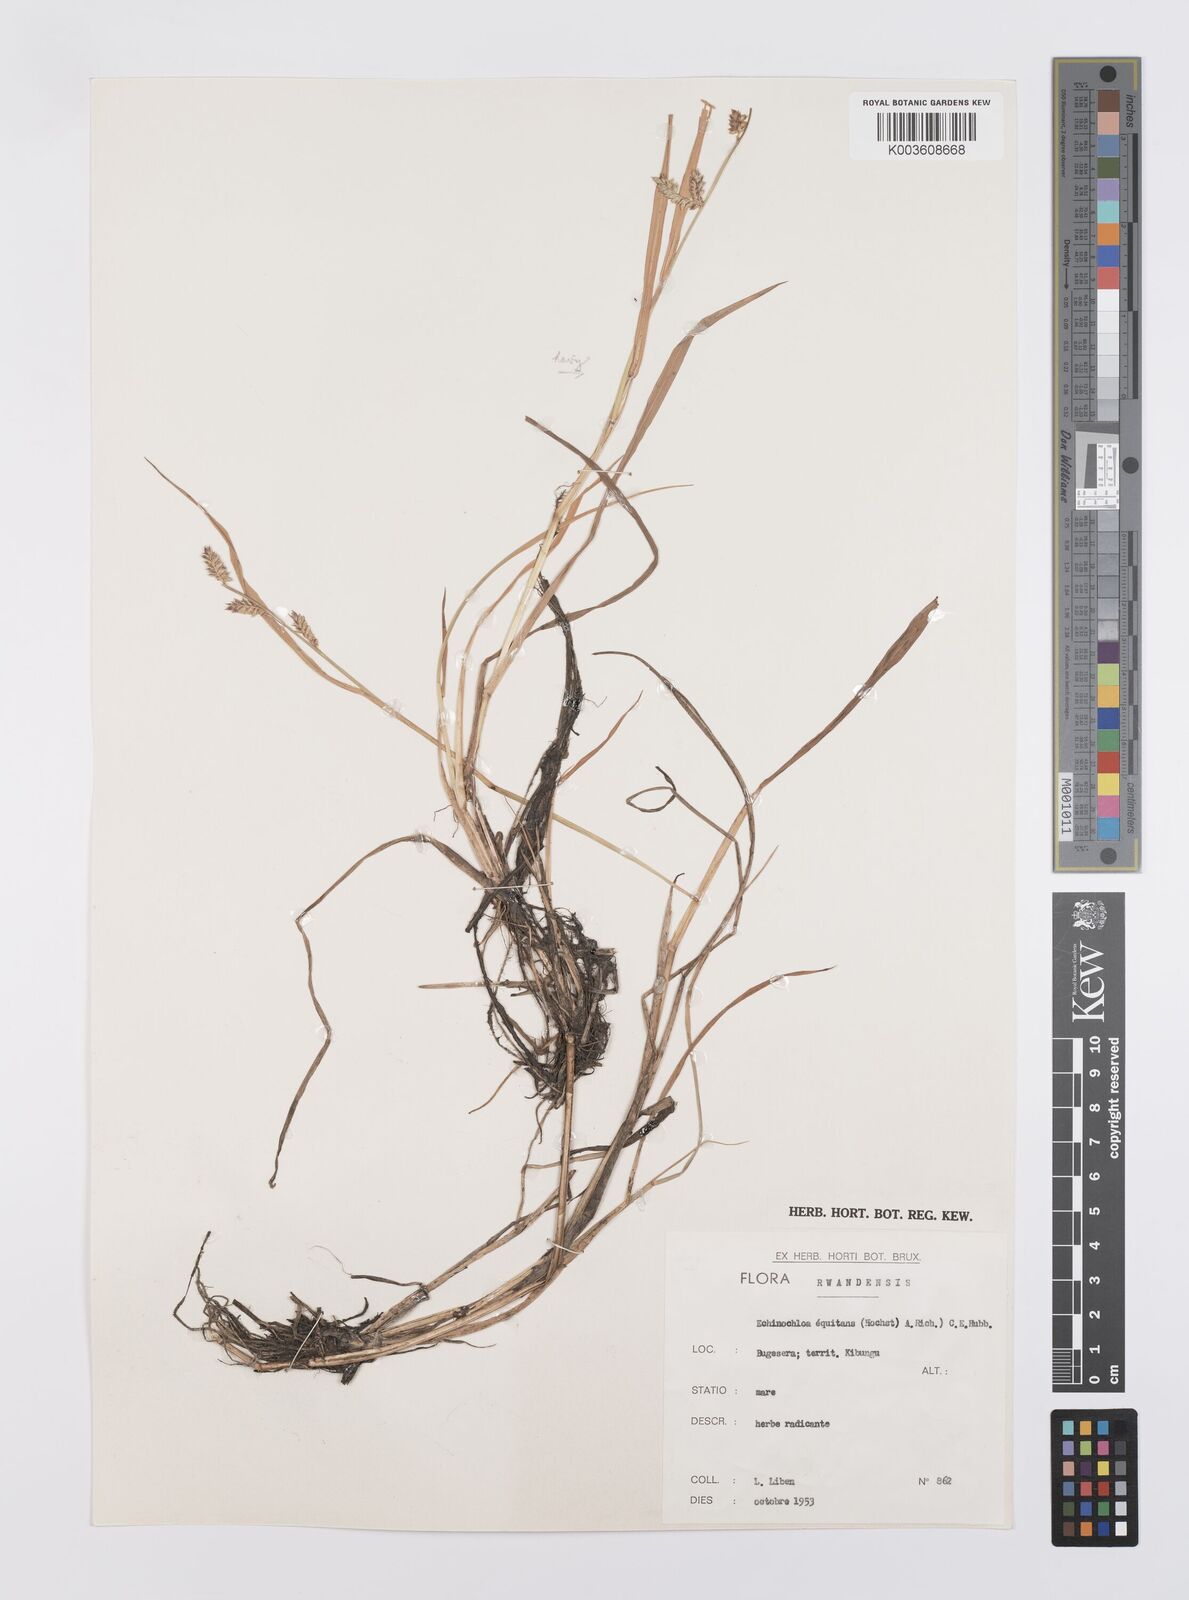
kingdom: Plantae
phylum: Tracheophyta
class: Liliopsida
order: Poales
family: Poaceae
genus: Echinochloa
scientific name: Echinochloa haploclada
